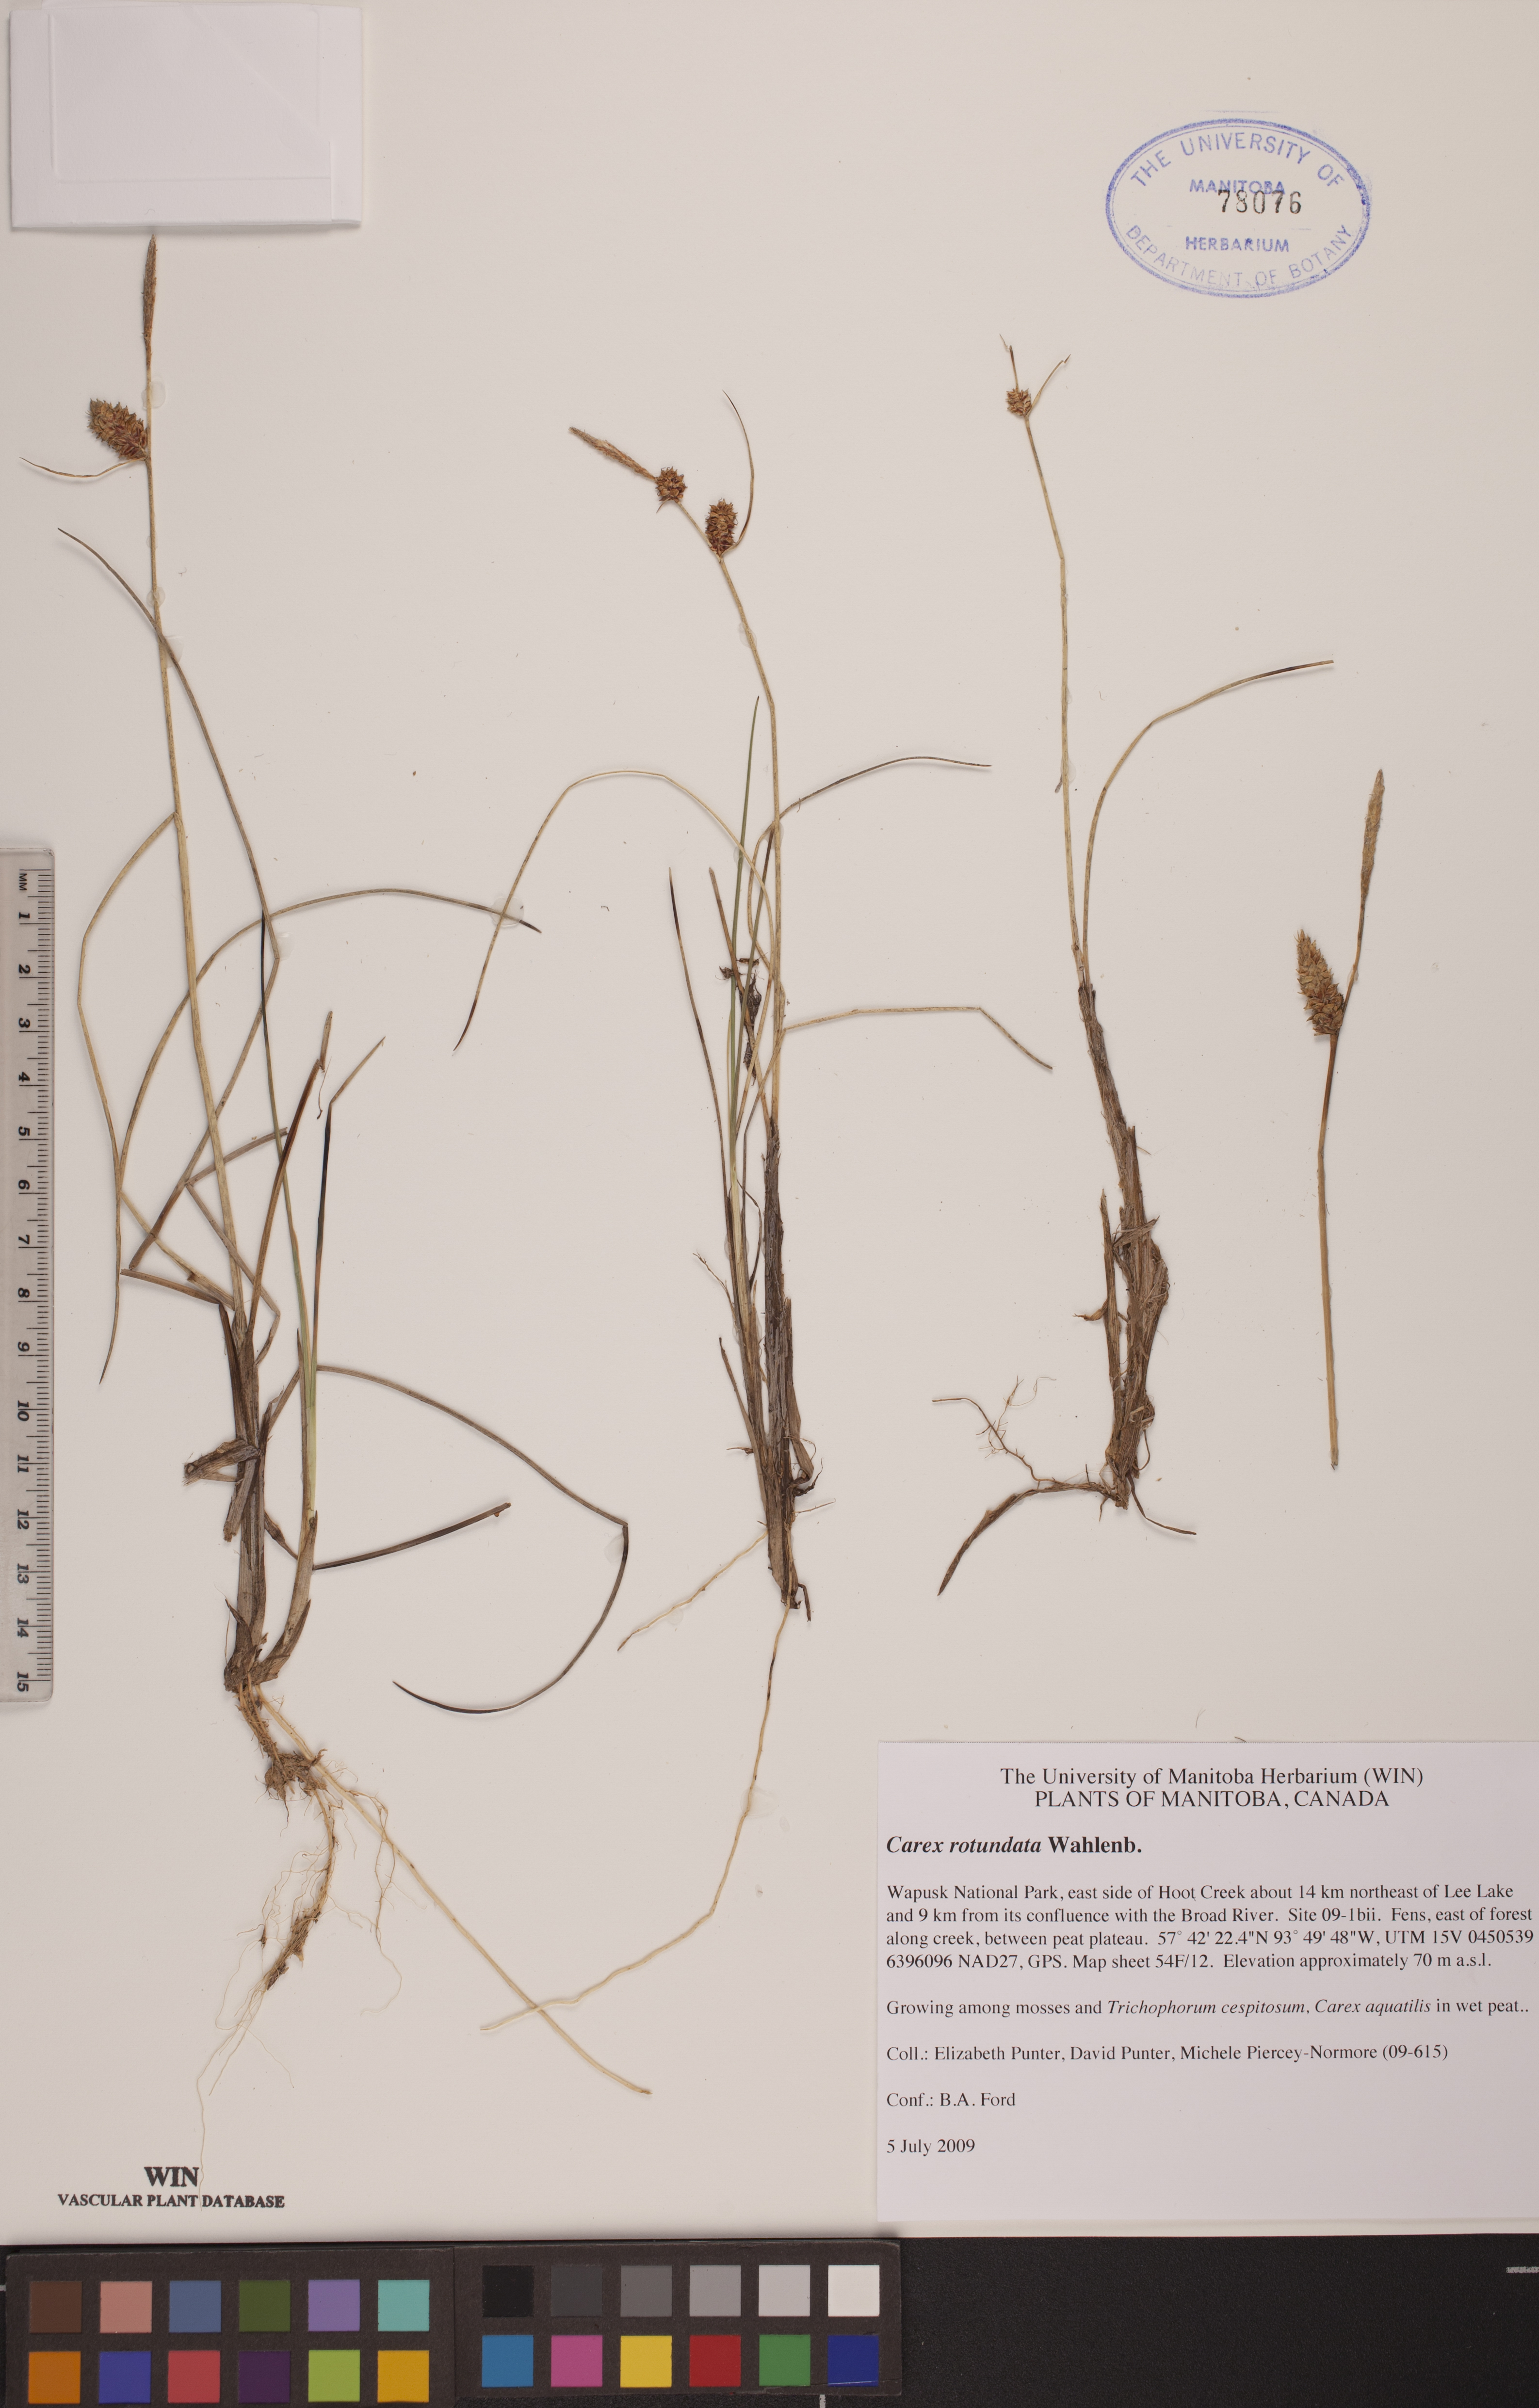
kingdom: Plantae
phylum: Tracheophyta
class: Liliopsida
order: Poales
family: Cyperaceae
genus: Carex
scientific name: Carex rotundata
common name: Round-fruited sedge
